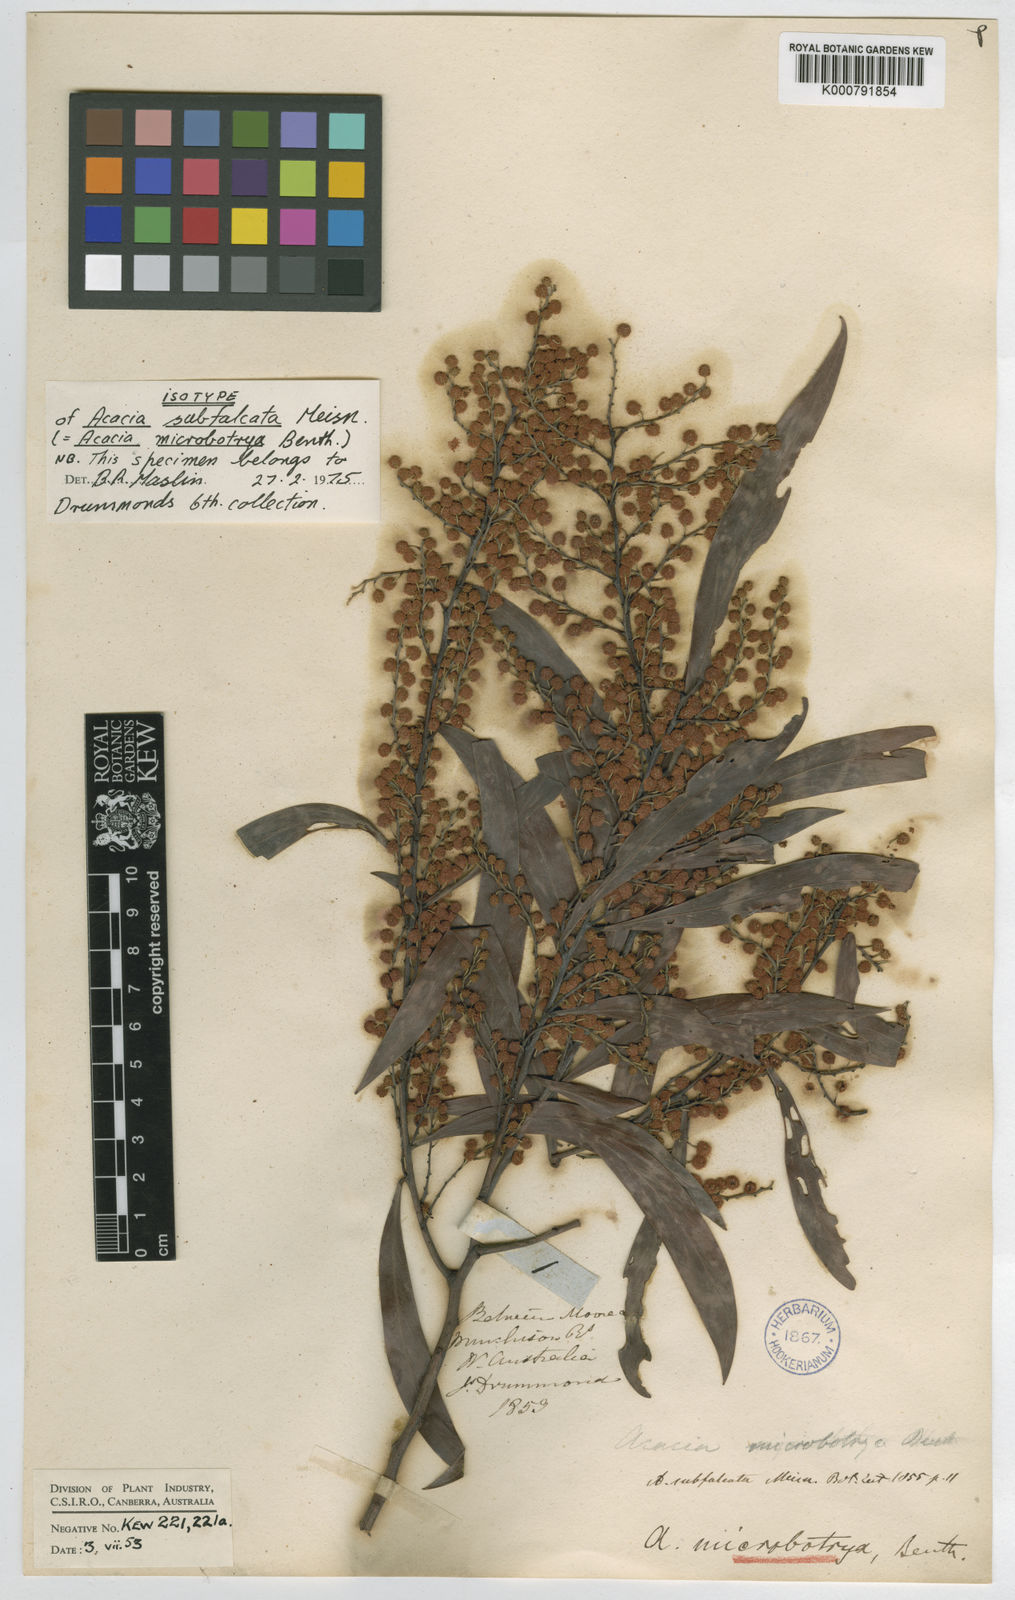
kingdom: Plantae
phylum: Tracheophyta
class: Magnoliopsida
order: Fabales
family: Fabaceae
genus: Acacia
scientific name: Acacia microbotrya
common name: Manna wattle
